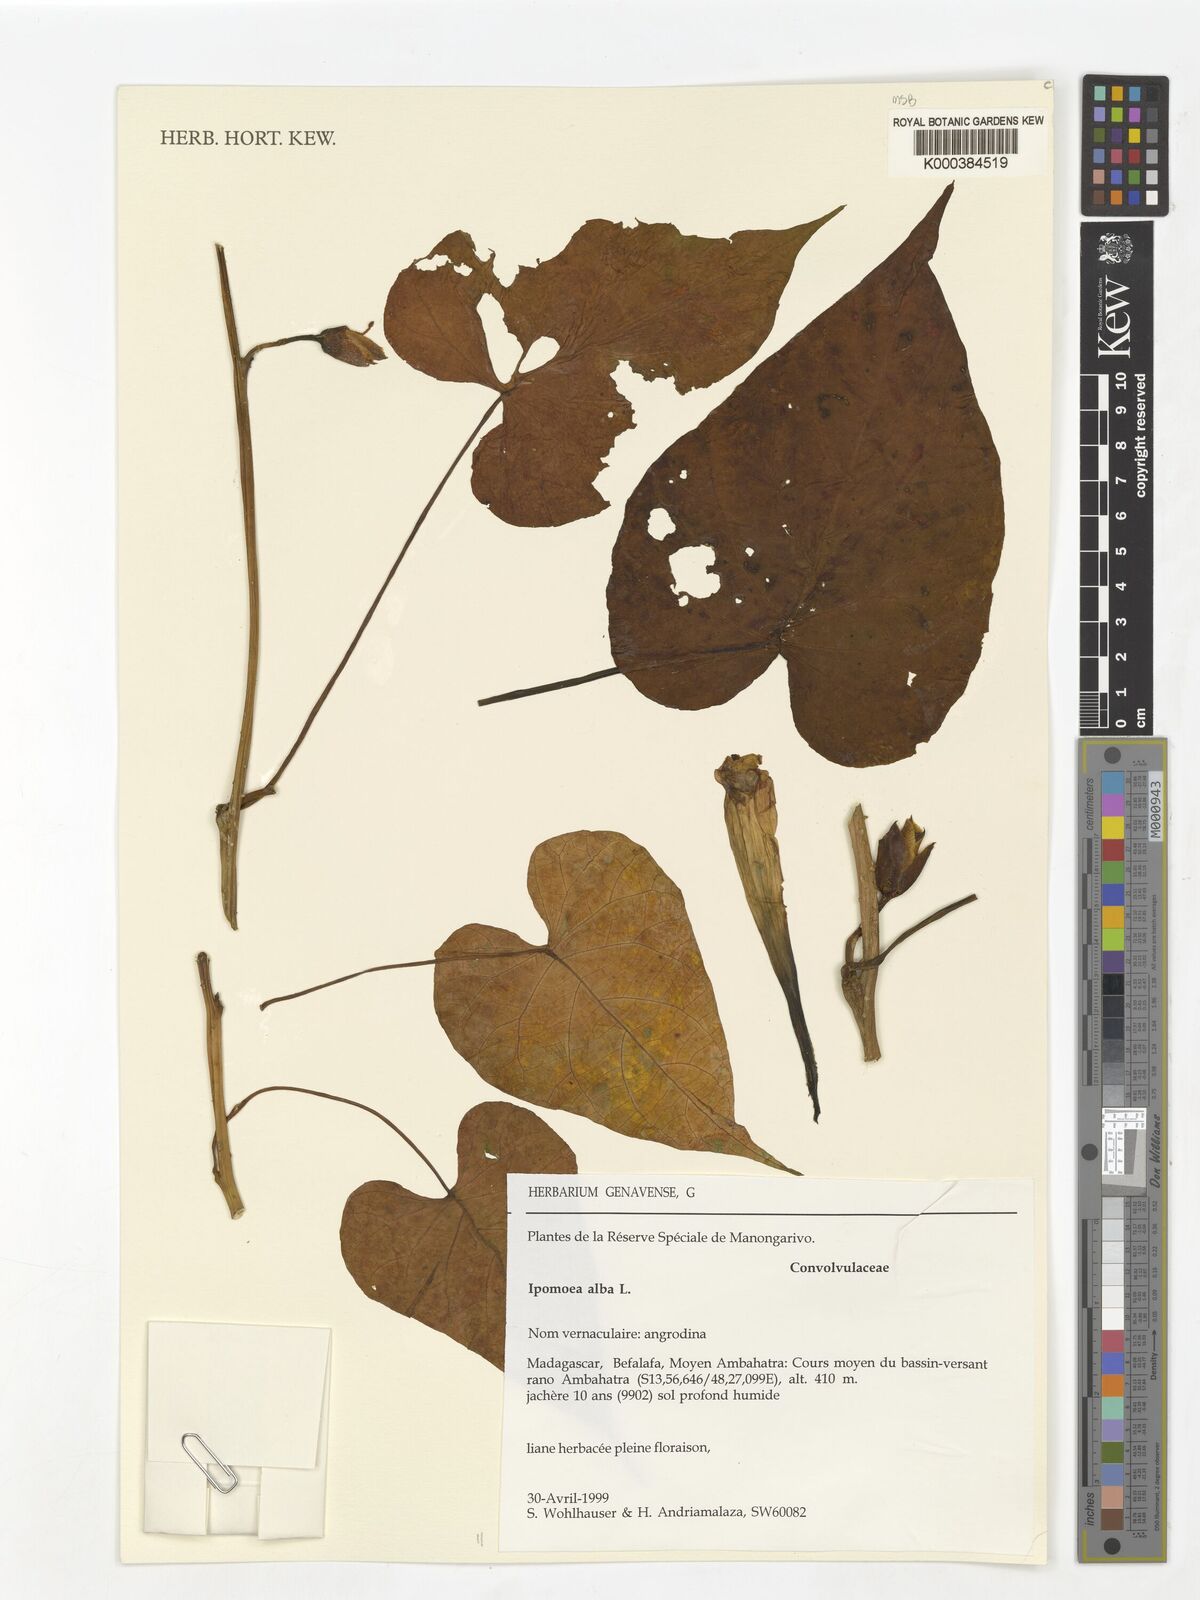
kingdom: Plantae
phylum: Tracheophyta
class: Magnoliopsida
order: Solanales
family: Convolvulaceae
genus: Ipomoea
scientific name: Ipomoea alba
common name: Moonflower
